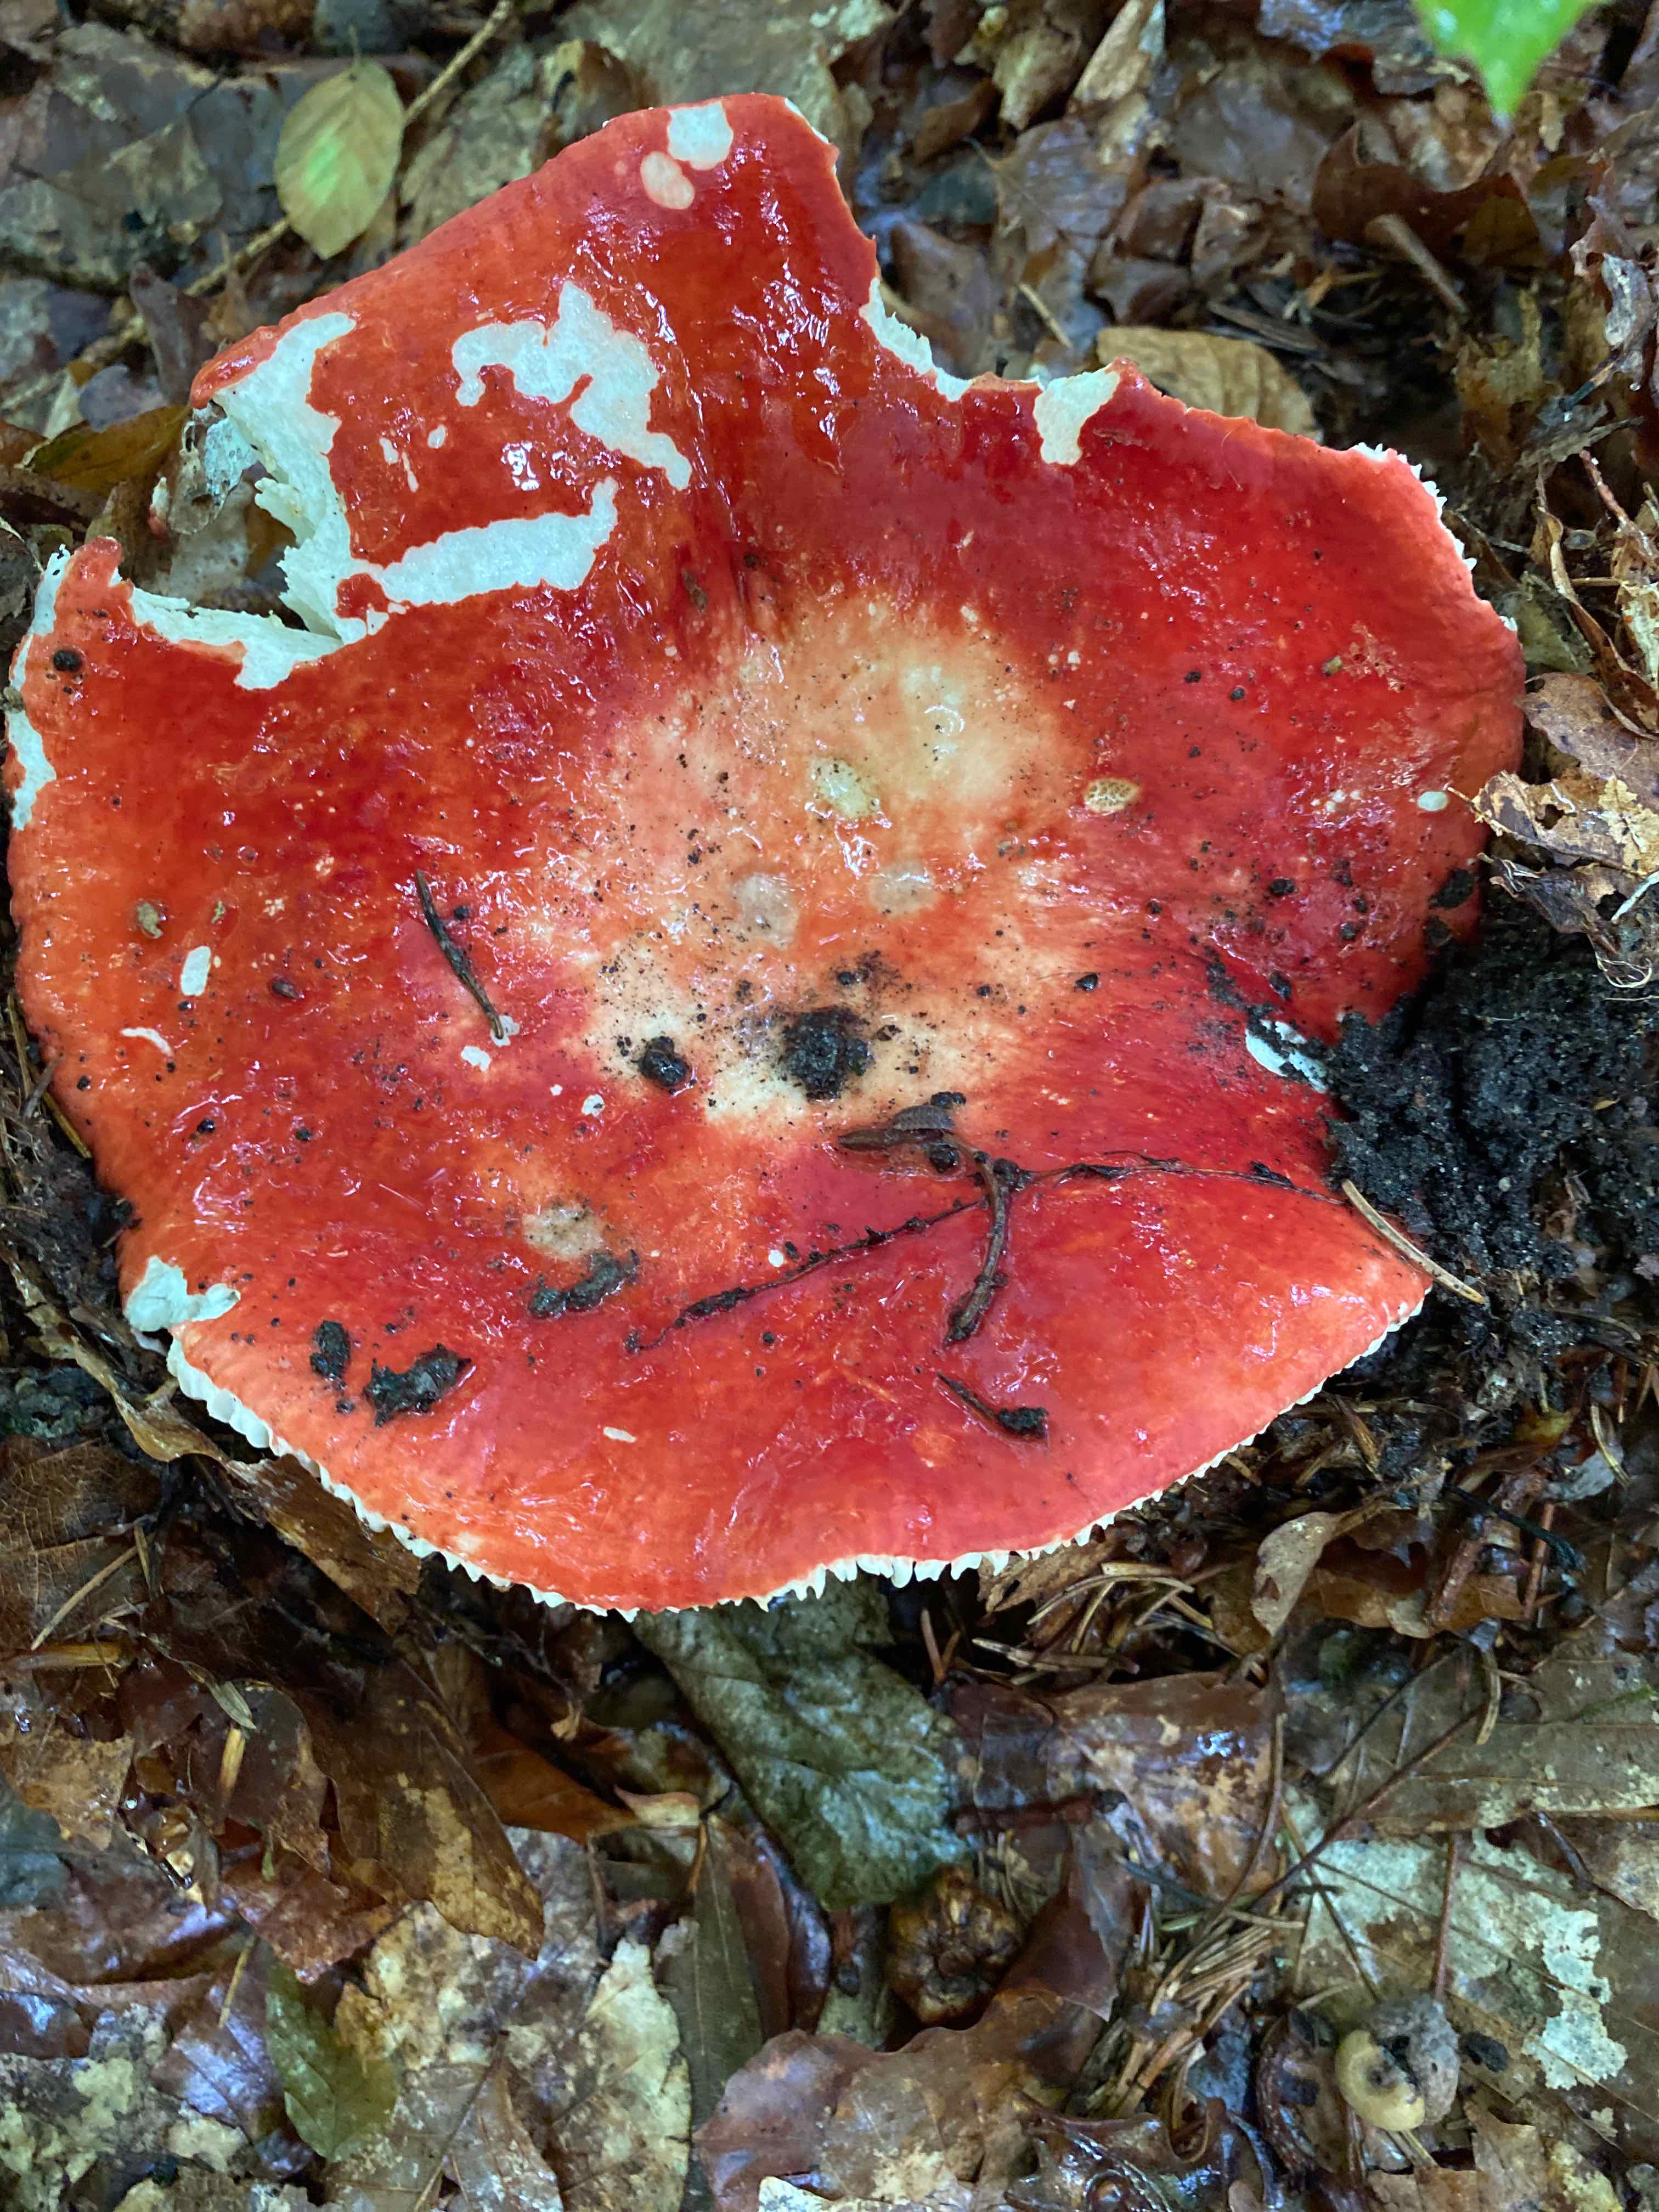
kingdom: Fungi
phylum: Basidiomycota
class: Agaricomycetes
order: Russulales
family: Russulaceae
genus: Russula
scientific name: Russula rosea
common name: fastkødet skørhat
